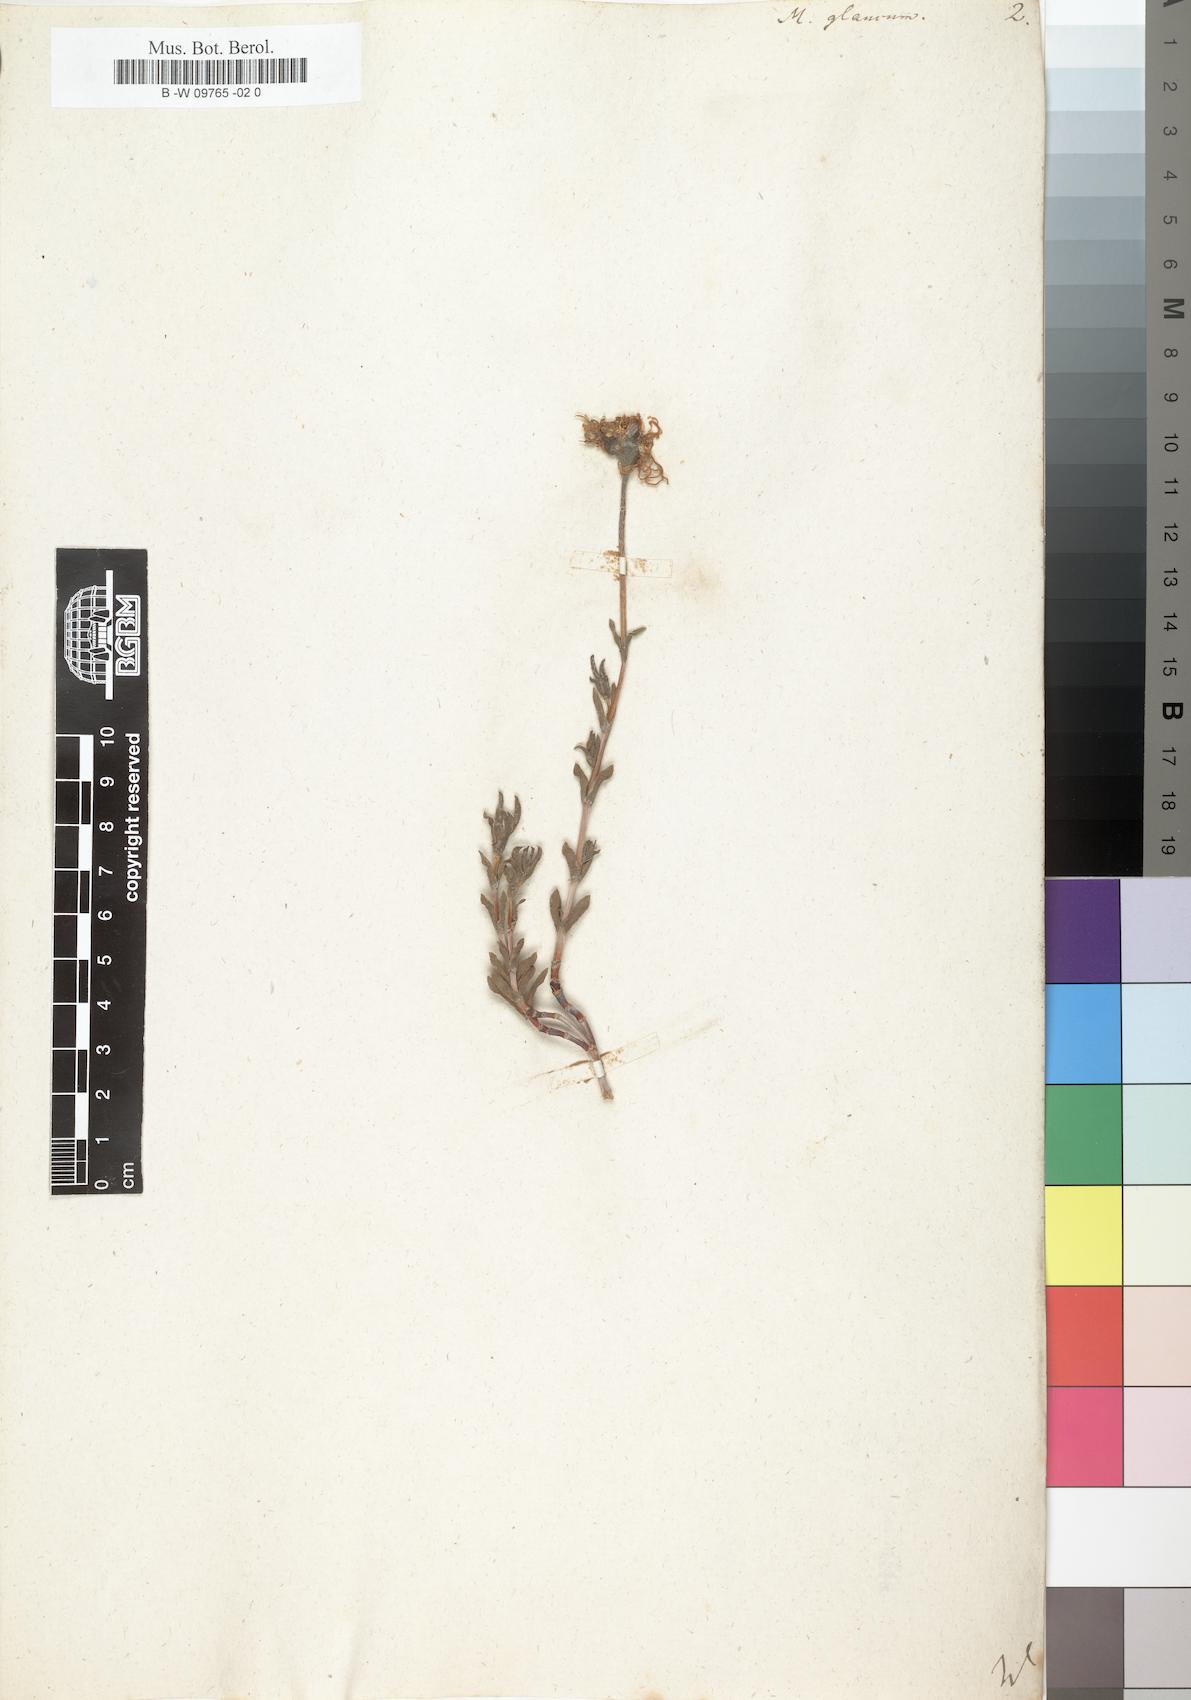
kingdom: Plantae
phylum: Tracheophyta
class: Magnoliopsida
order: Caryophyllales
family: Aizoaceae
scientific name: Aizoaceae
